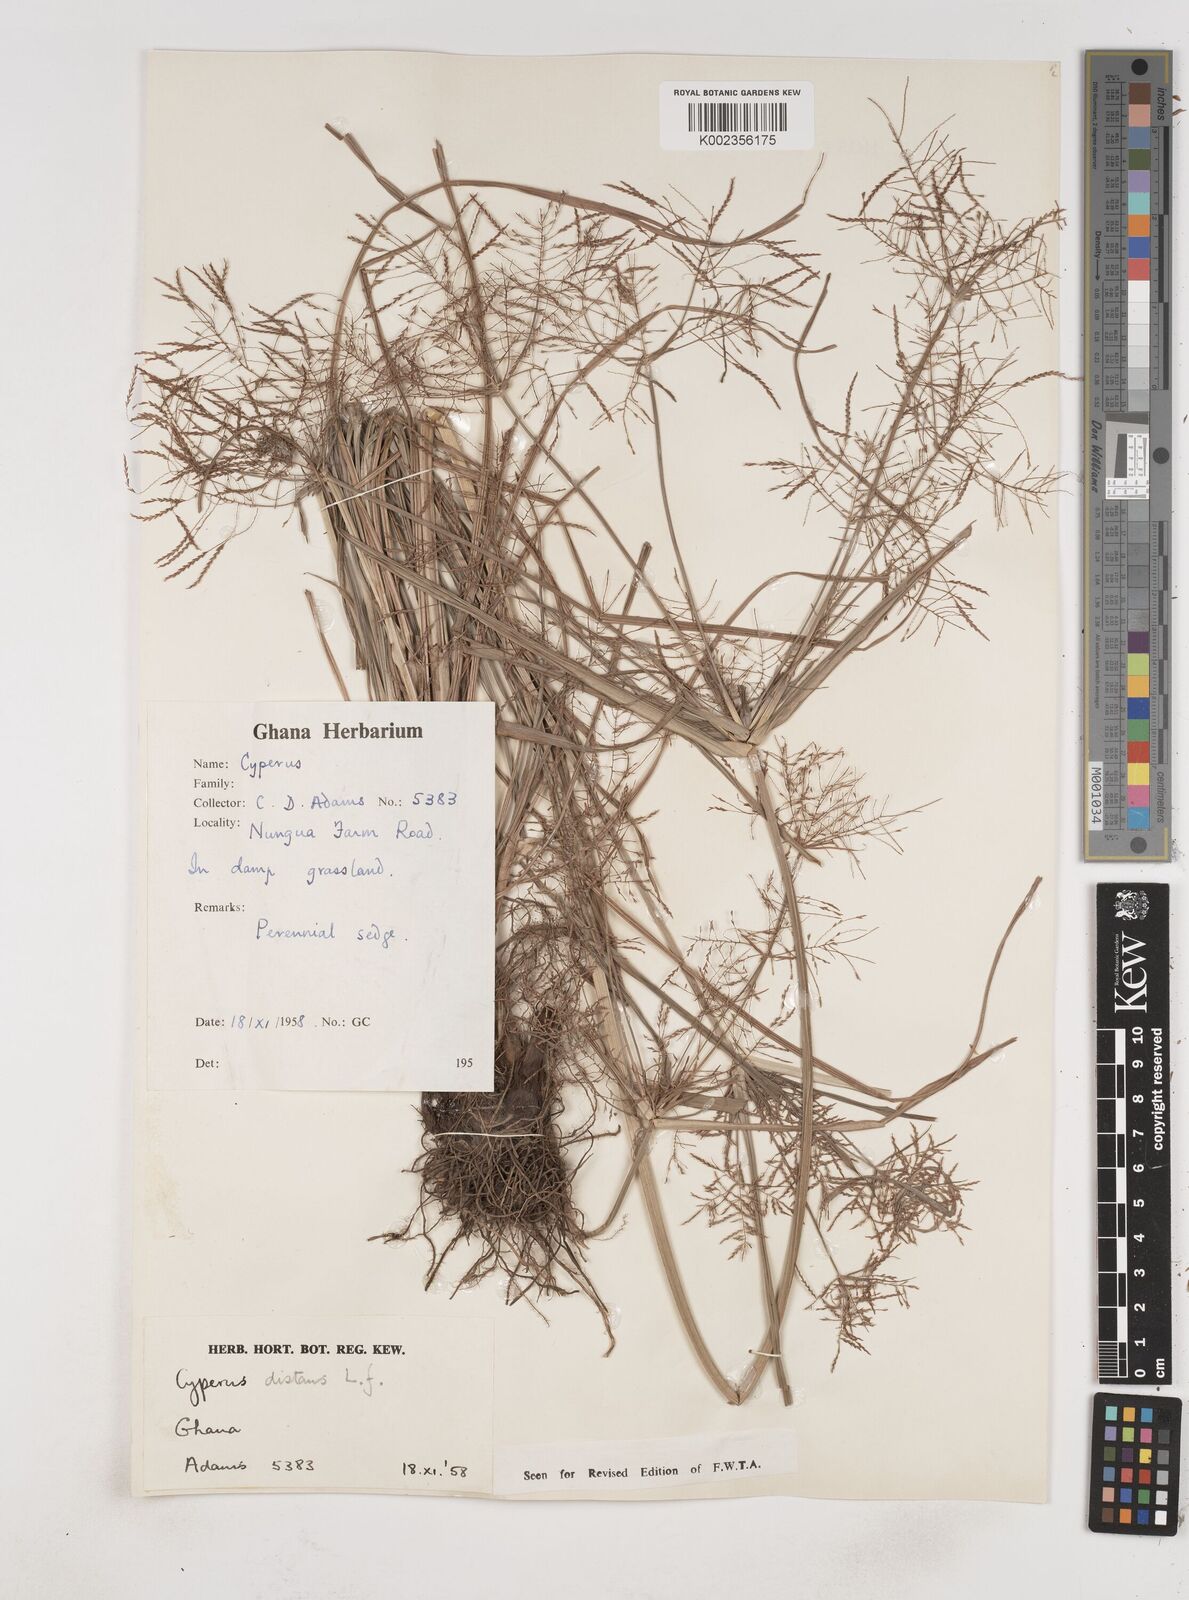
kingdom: Plantae
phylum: Tracheophyta
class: Liliopsida
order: Poales
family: Cyperaceae
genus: Cyperus
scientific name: Cyperus distans
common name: Slender cyperus
